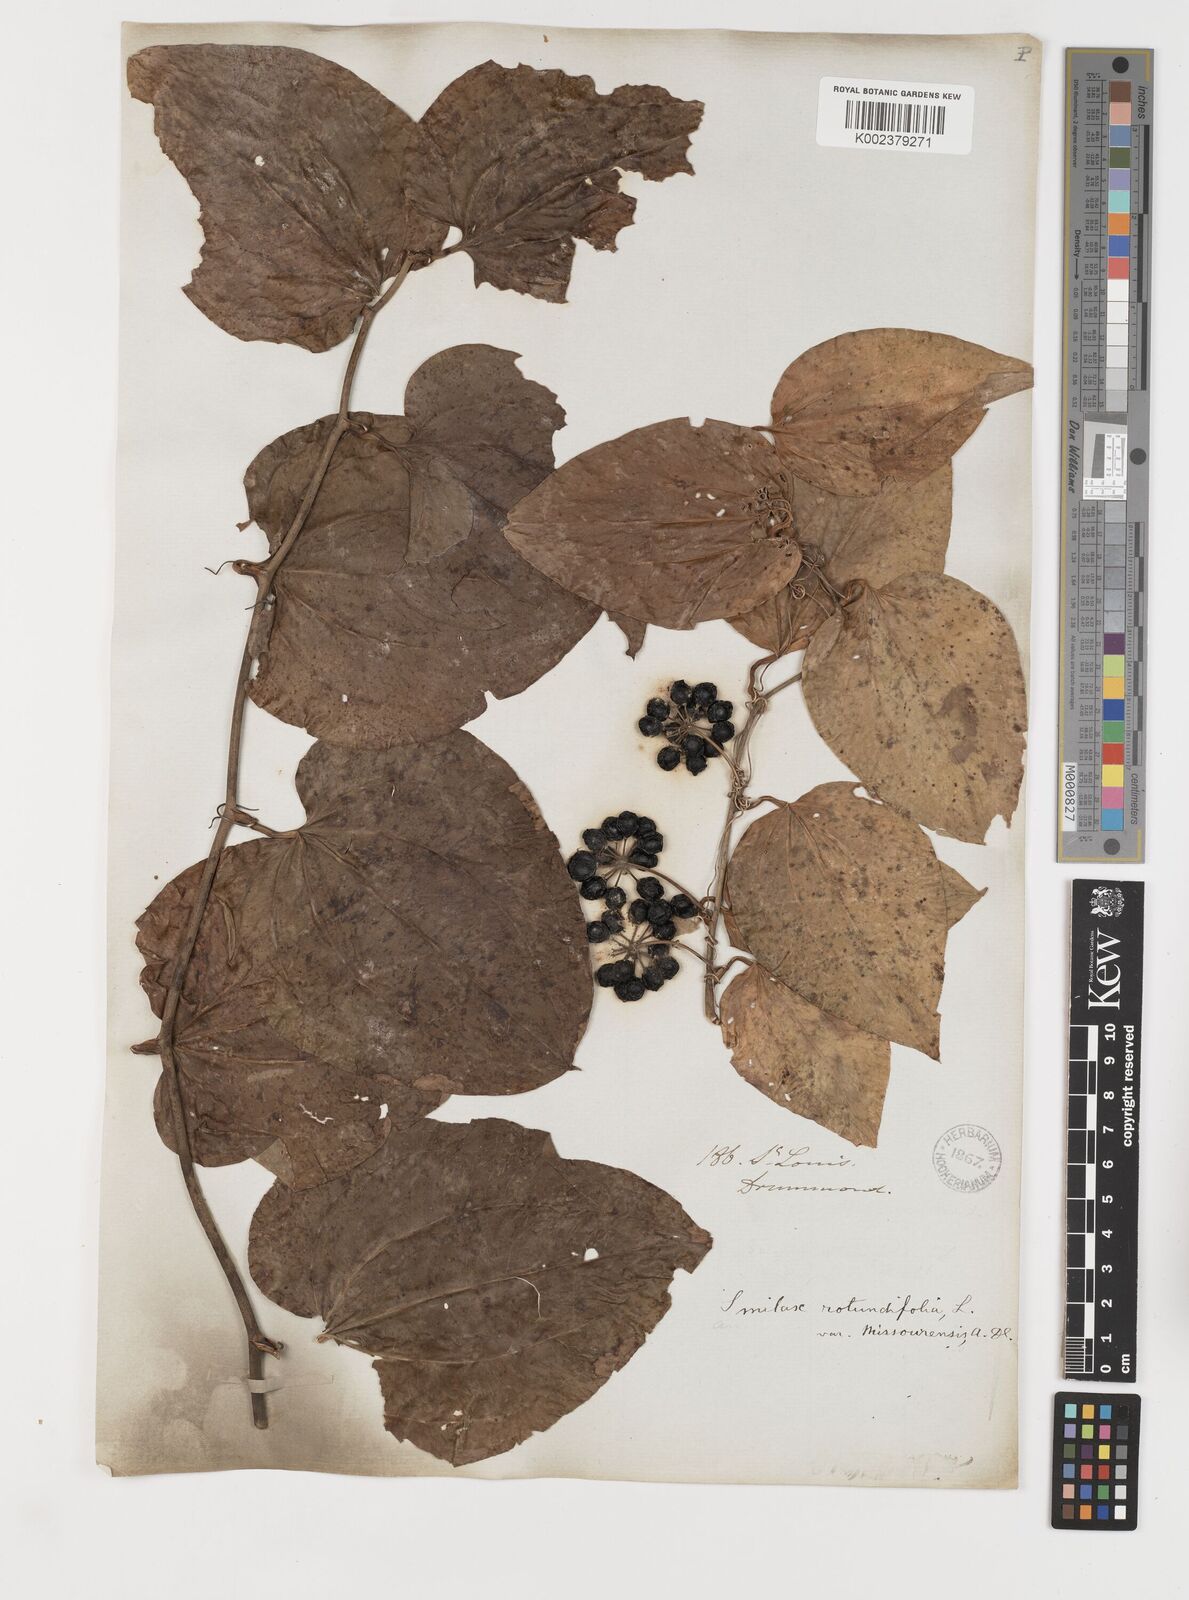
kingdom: Plantae
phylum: Tracheophyta
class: Liliopsida
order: Liliales
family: Smilacaceae
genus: Smilax
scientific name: Smilax rotundifolia
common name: Bullbriar
